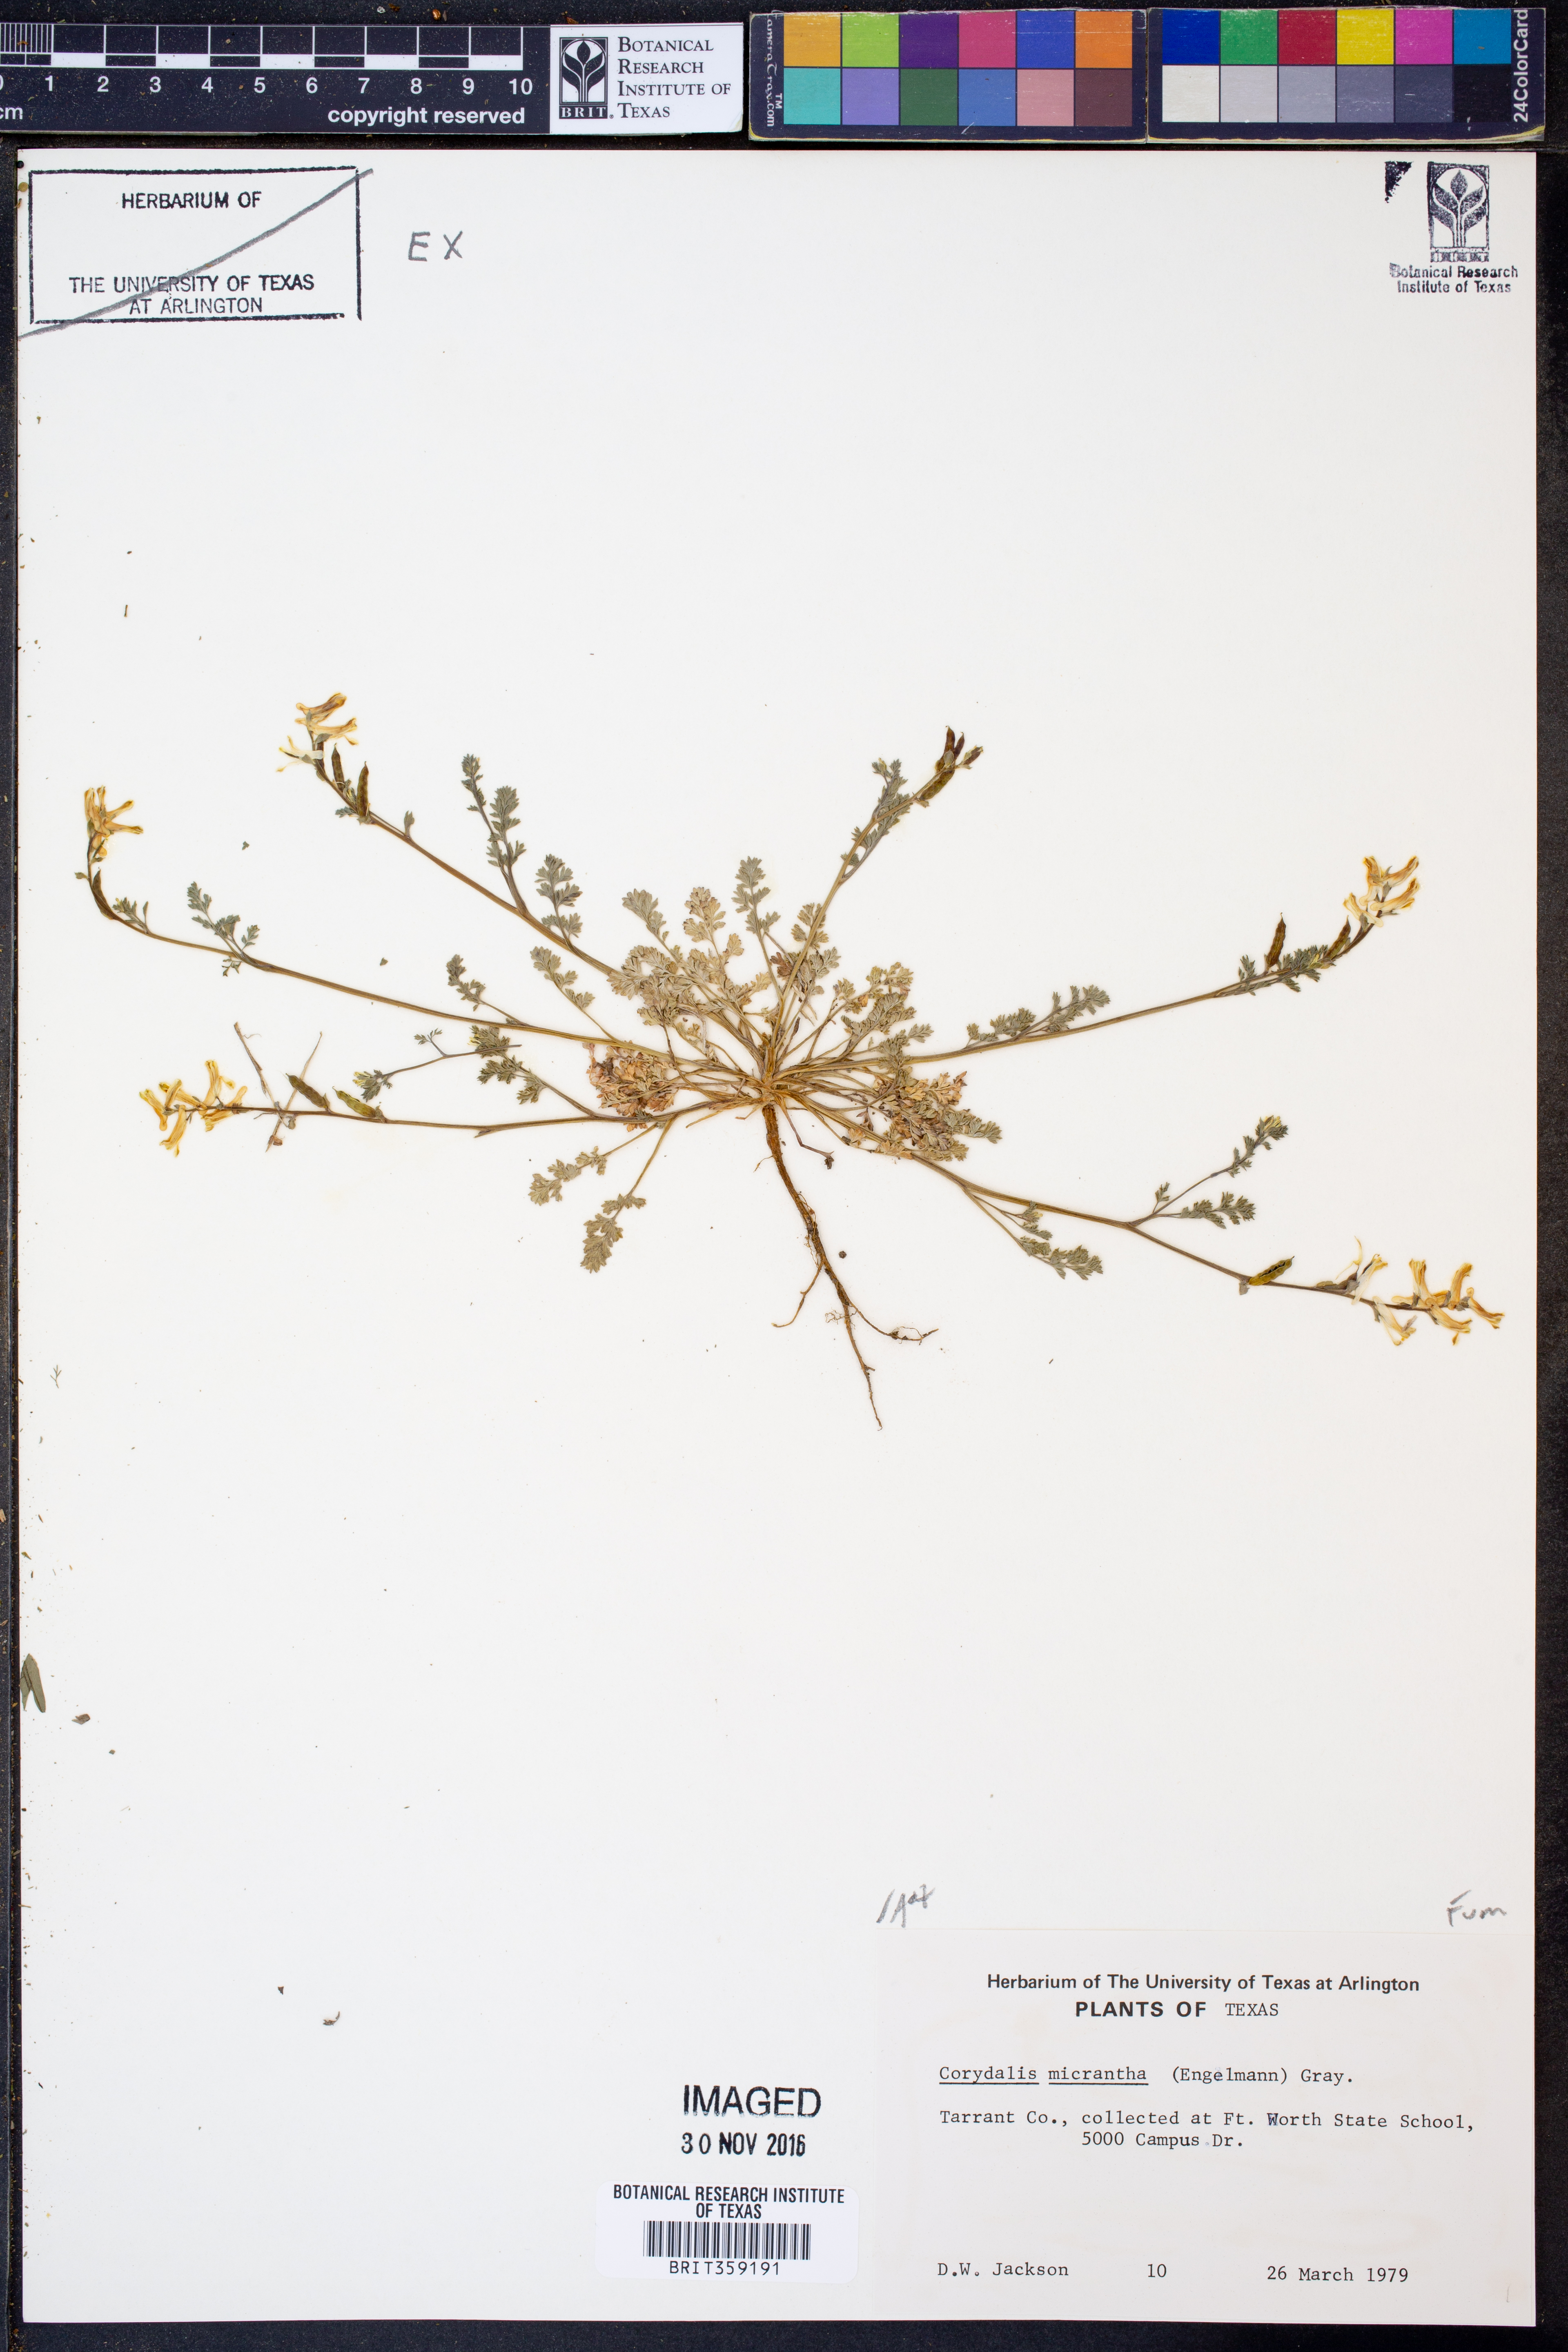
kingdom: Plantae
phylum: Tracheophyta
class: Magnoliopsida
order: Ranunculales
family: Papaveraceae
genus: Corydalis
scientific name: Corydalis micrantha
